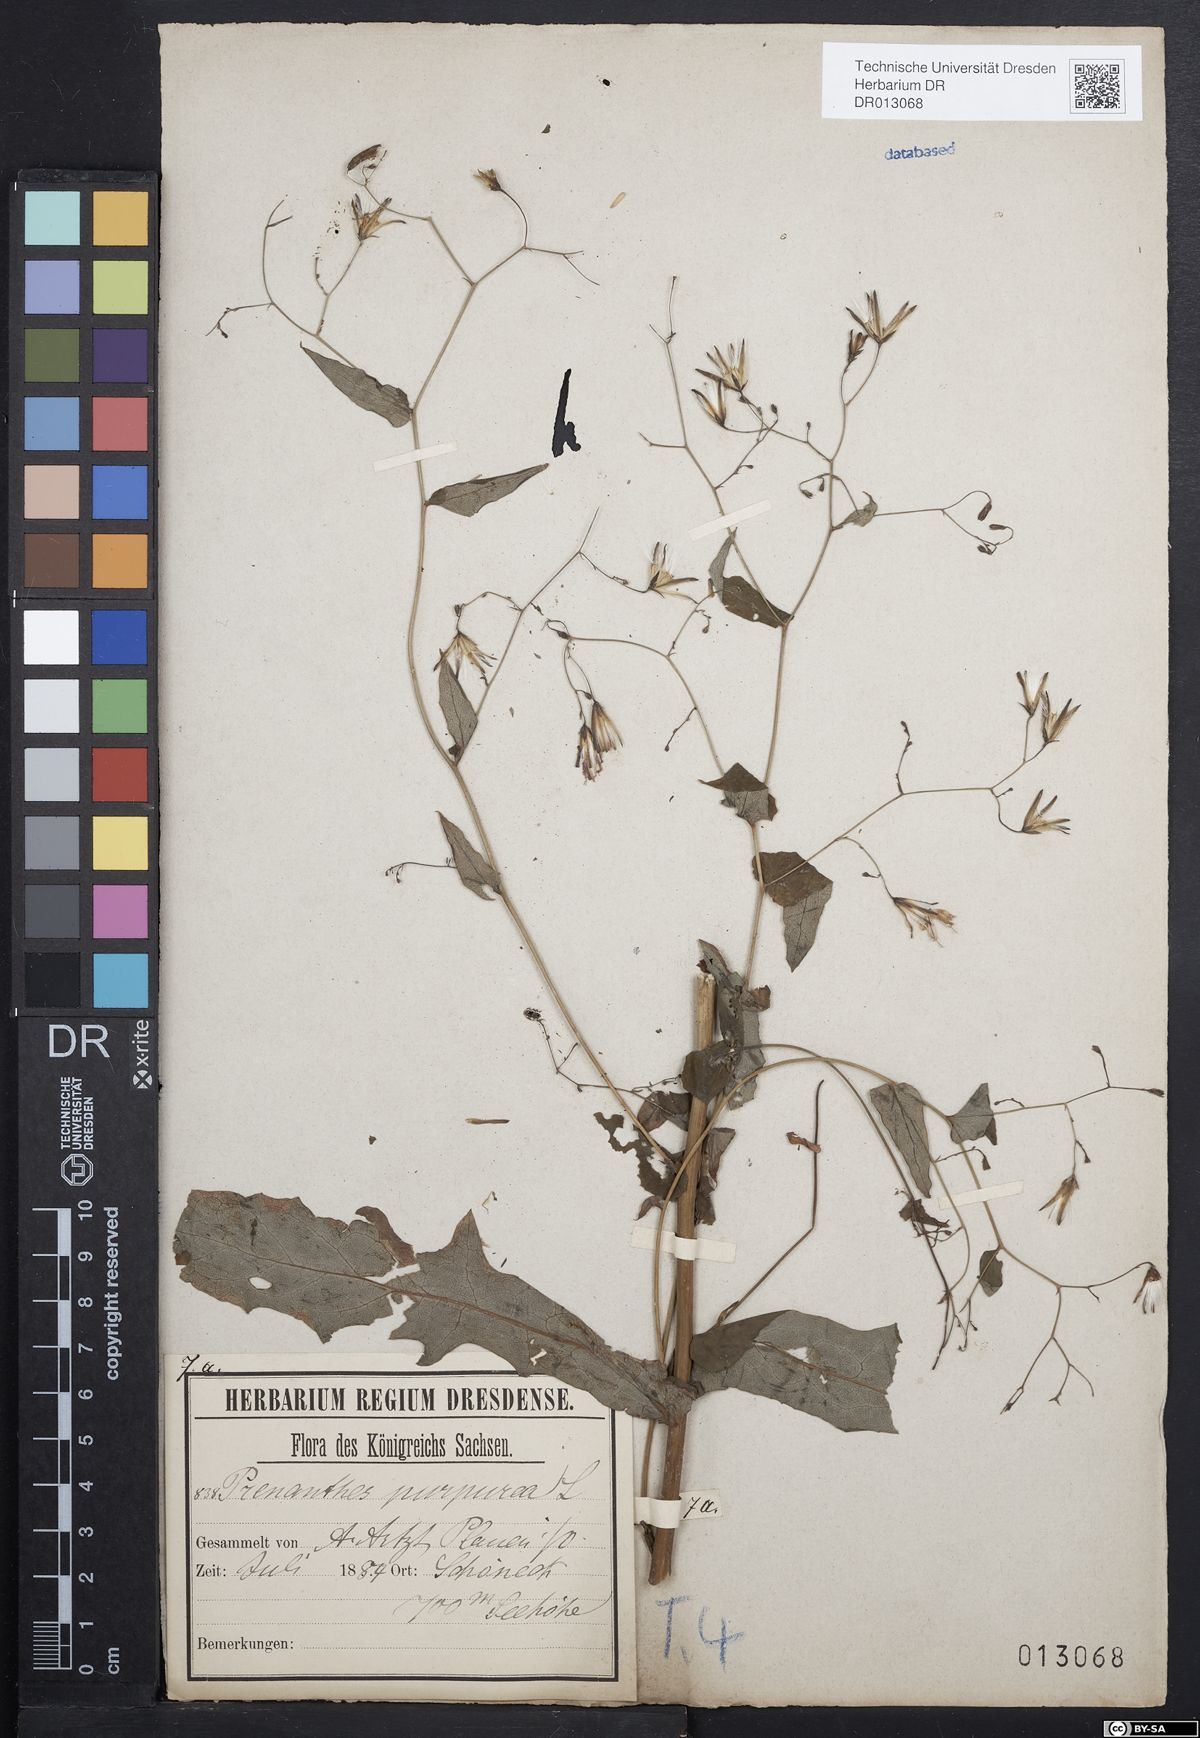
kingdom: Plantae
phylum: Tracheophyta
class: Magnoliopsida
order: Asterales
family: Asteraceae
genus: Prenanthes
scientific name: Prenanthes purpurea
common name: Purple lettuce
